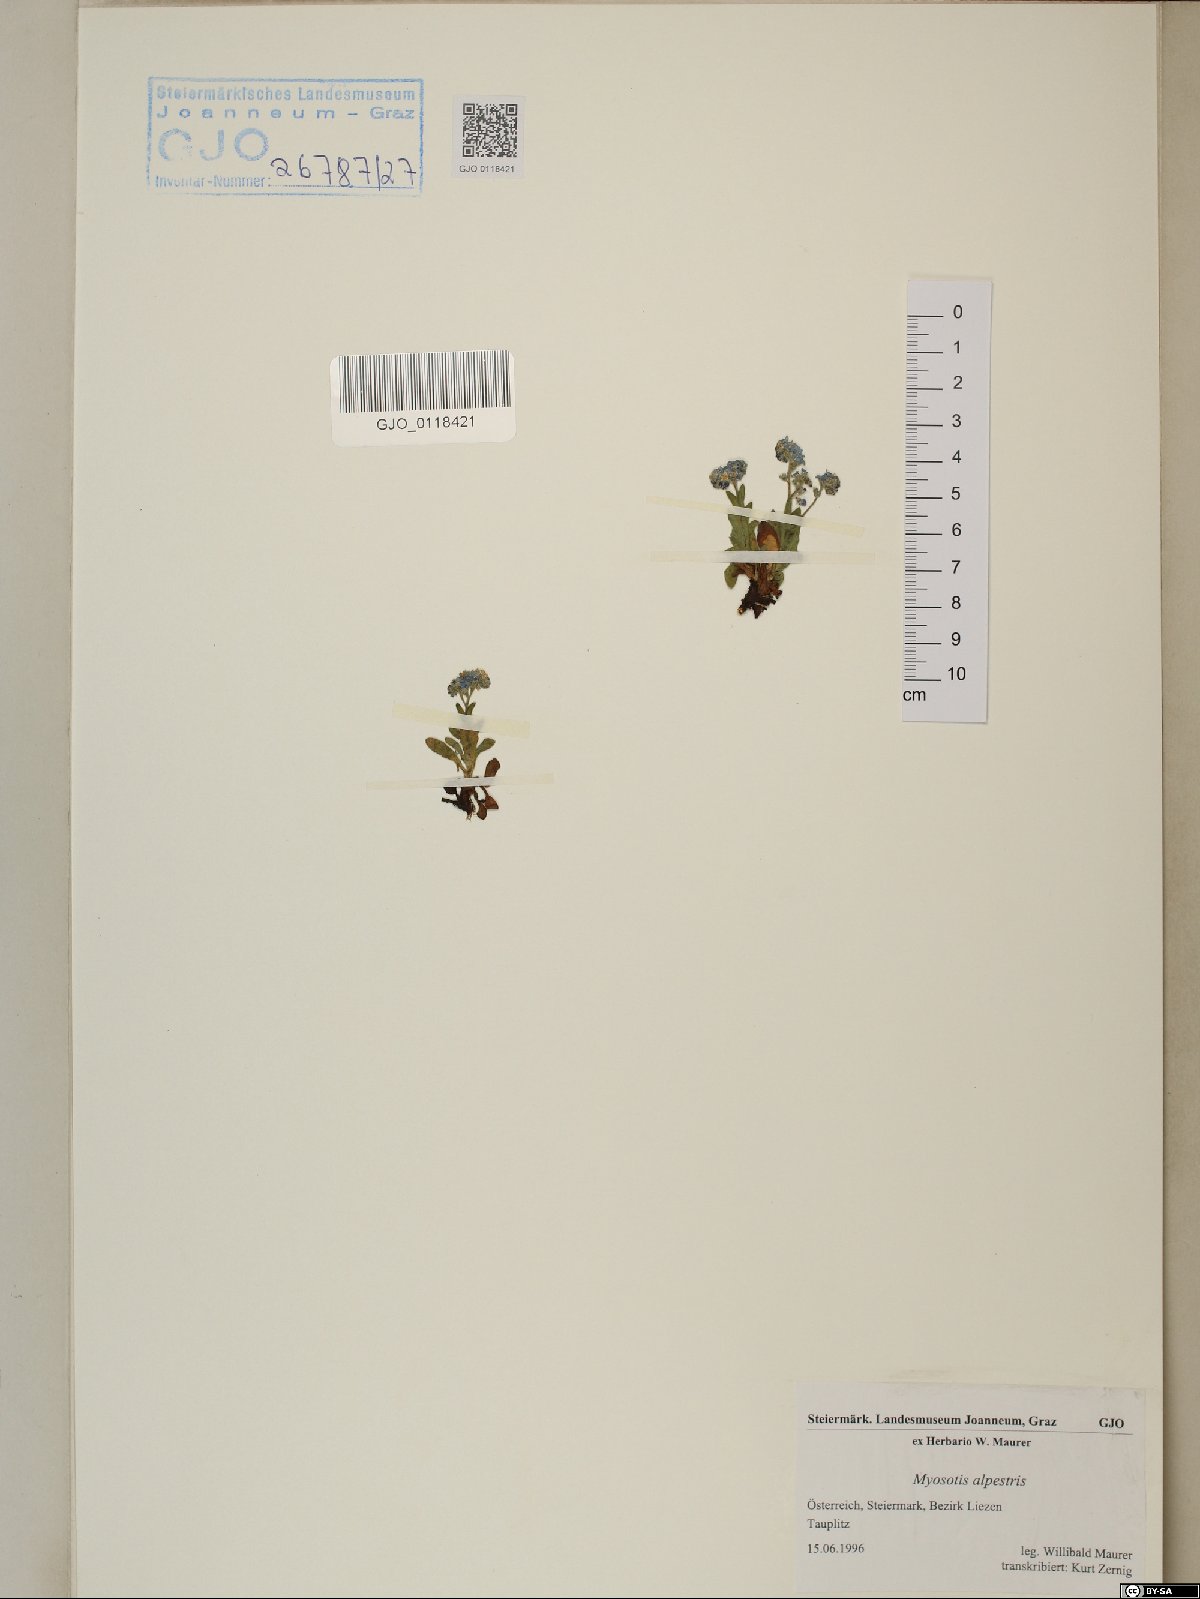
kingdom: Plantae
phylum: Tracheophyta
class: Magnoliopsida
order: Boraginales
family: Boraginaceae
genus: Myosotis
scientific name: Myosotis alpestris
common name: Alpine forget-me-not
